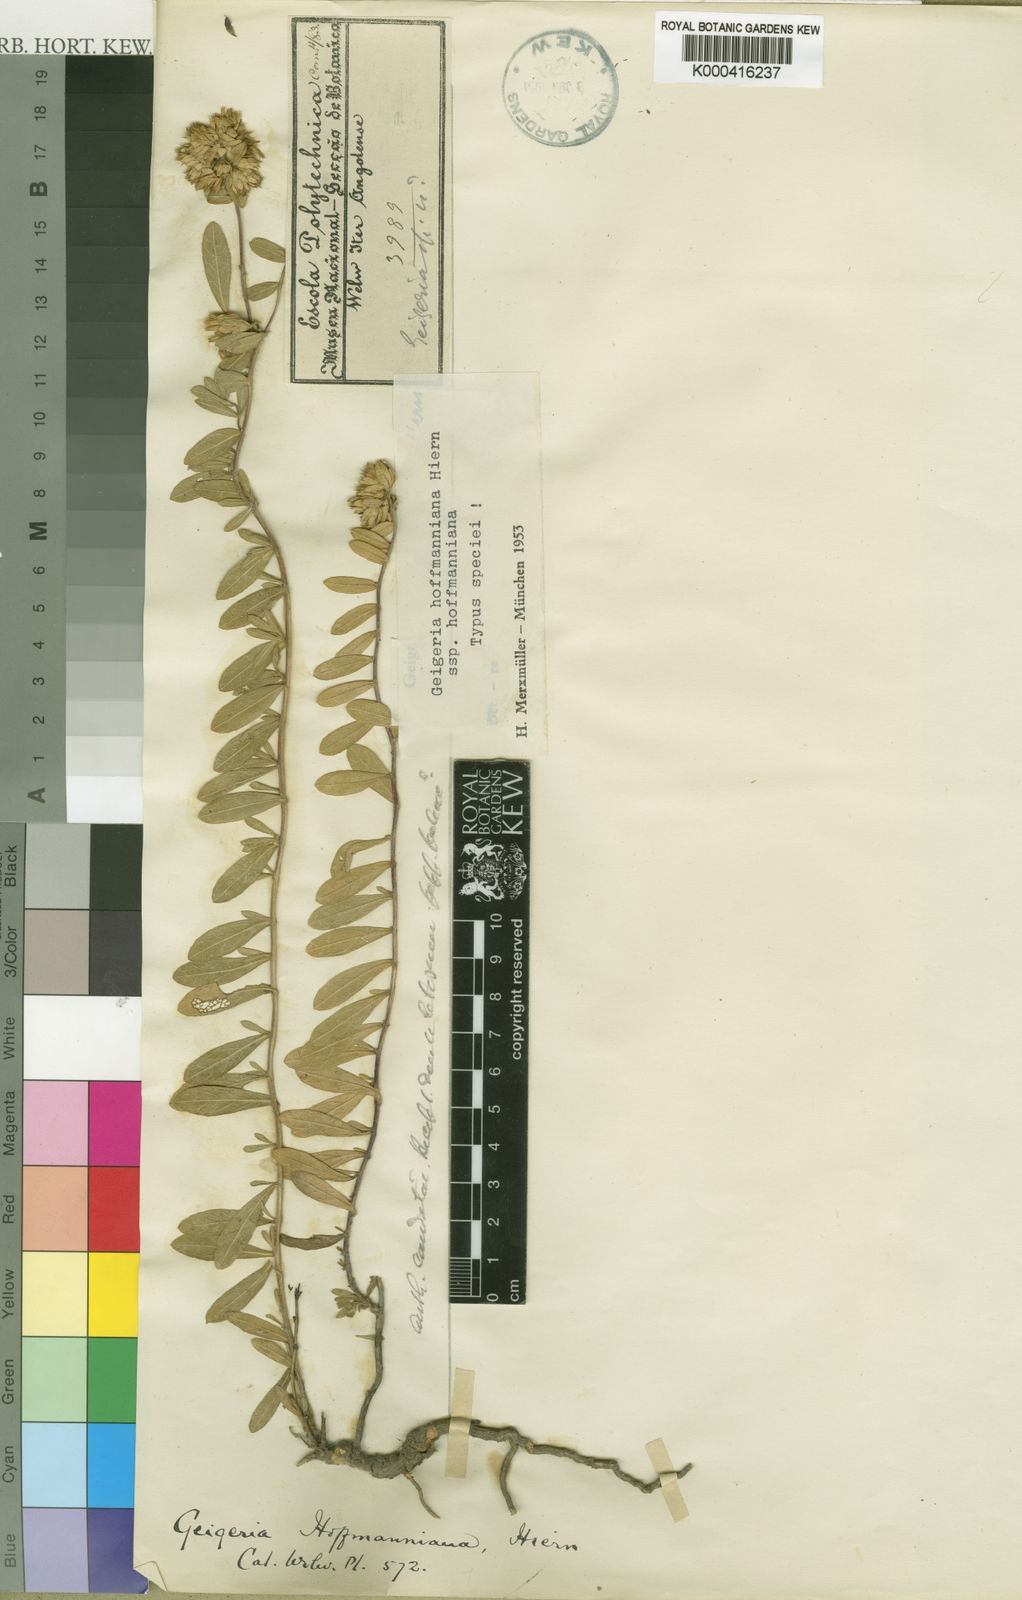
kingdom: Plantae
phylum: Tracheophyta
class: Magnoliopsida
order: Asterales
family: Asteraceae
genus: Geigeria
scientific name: Geigeria hoffmanniana
